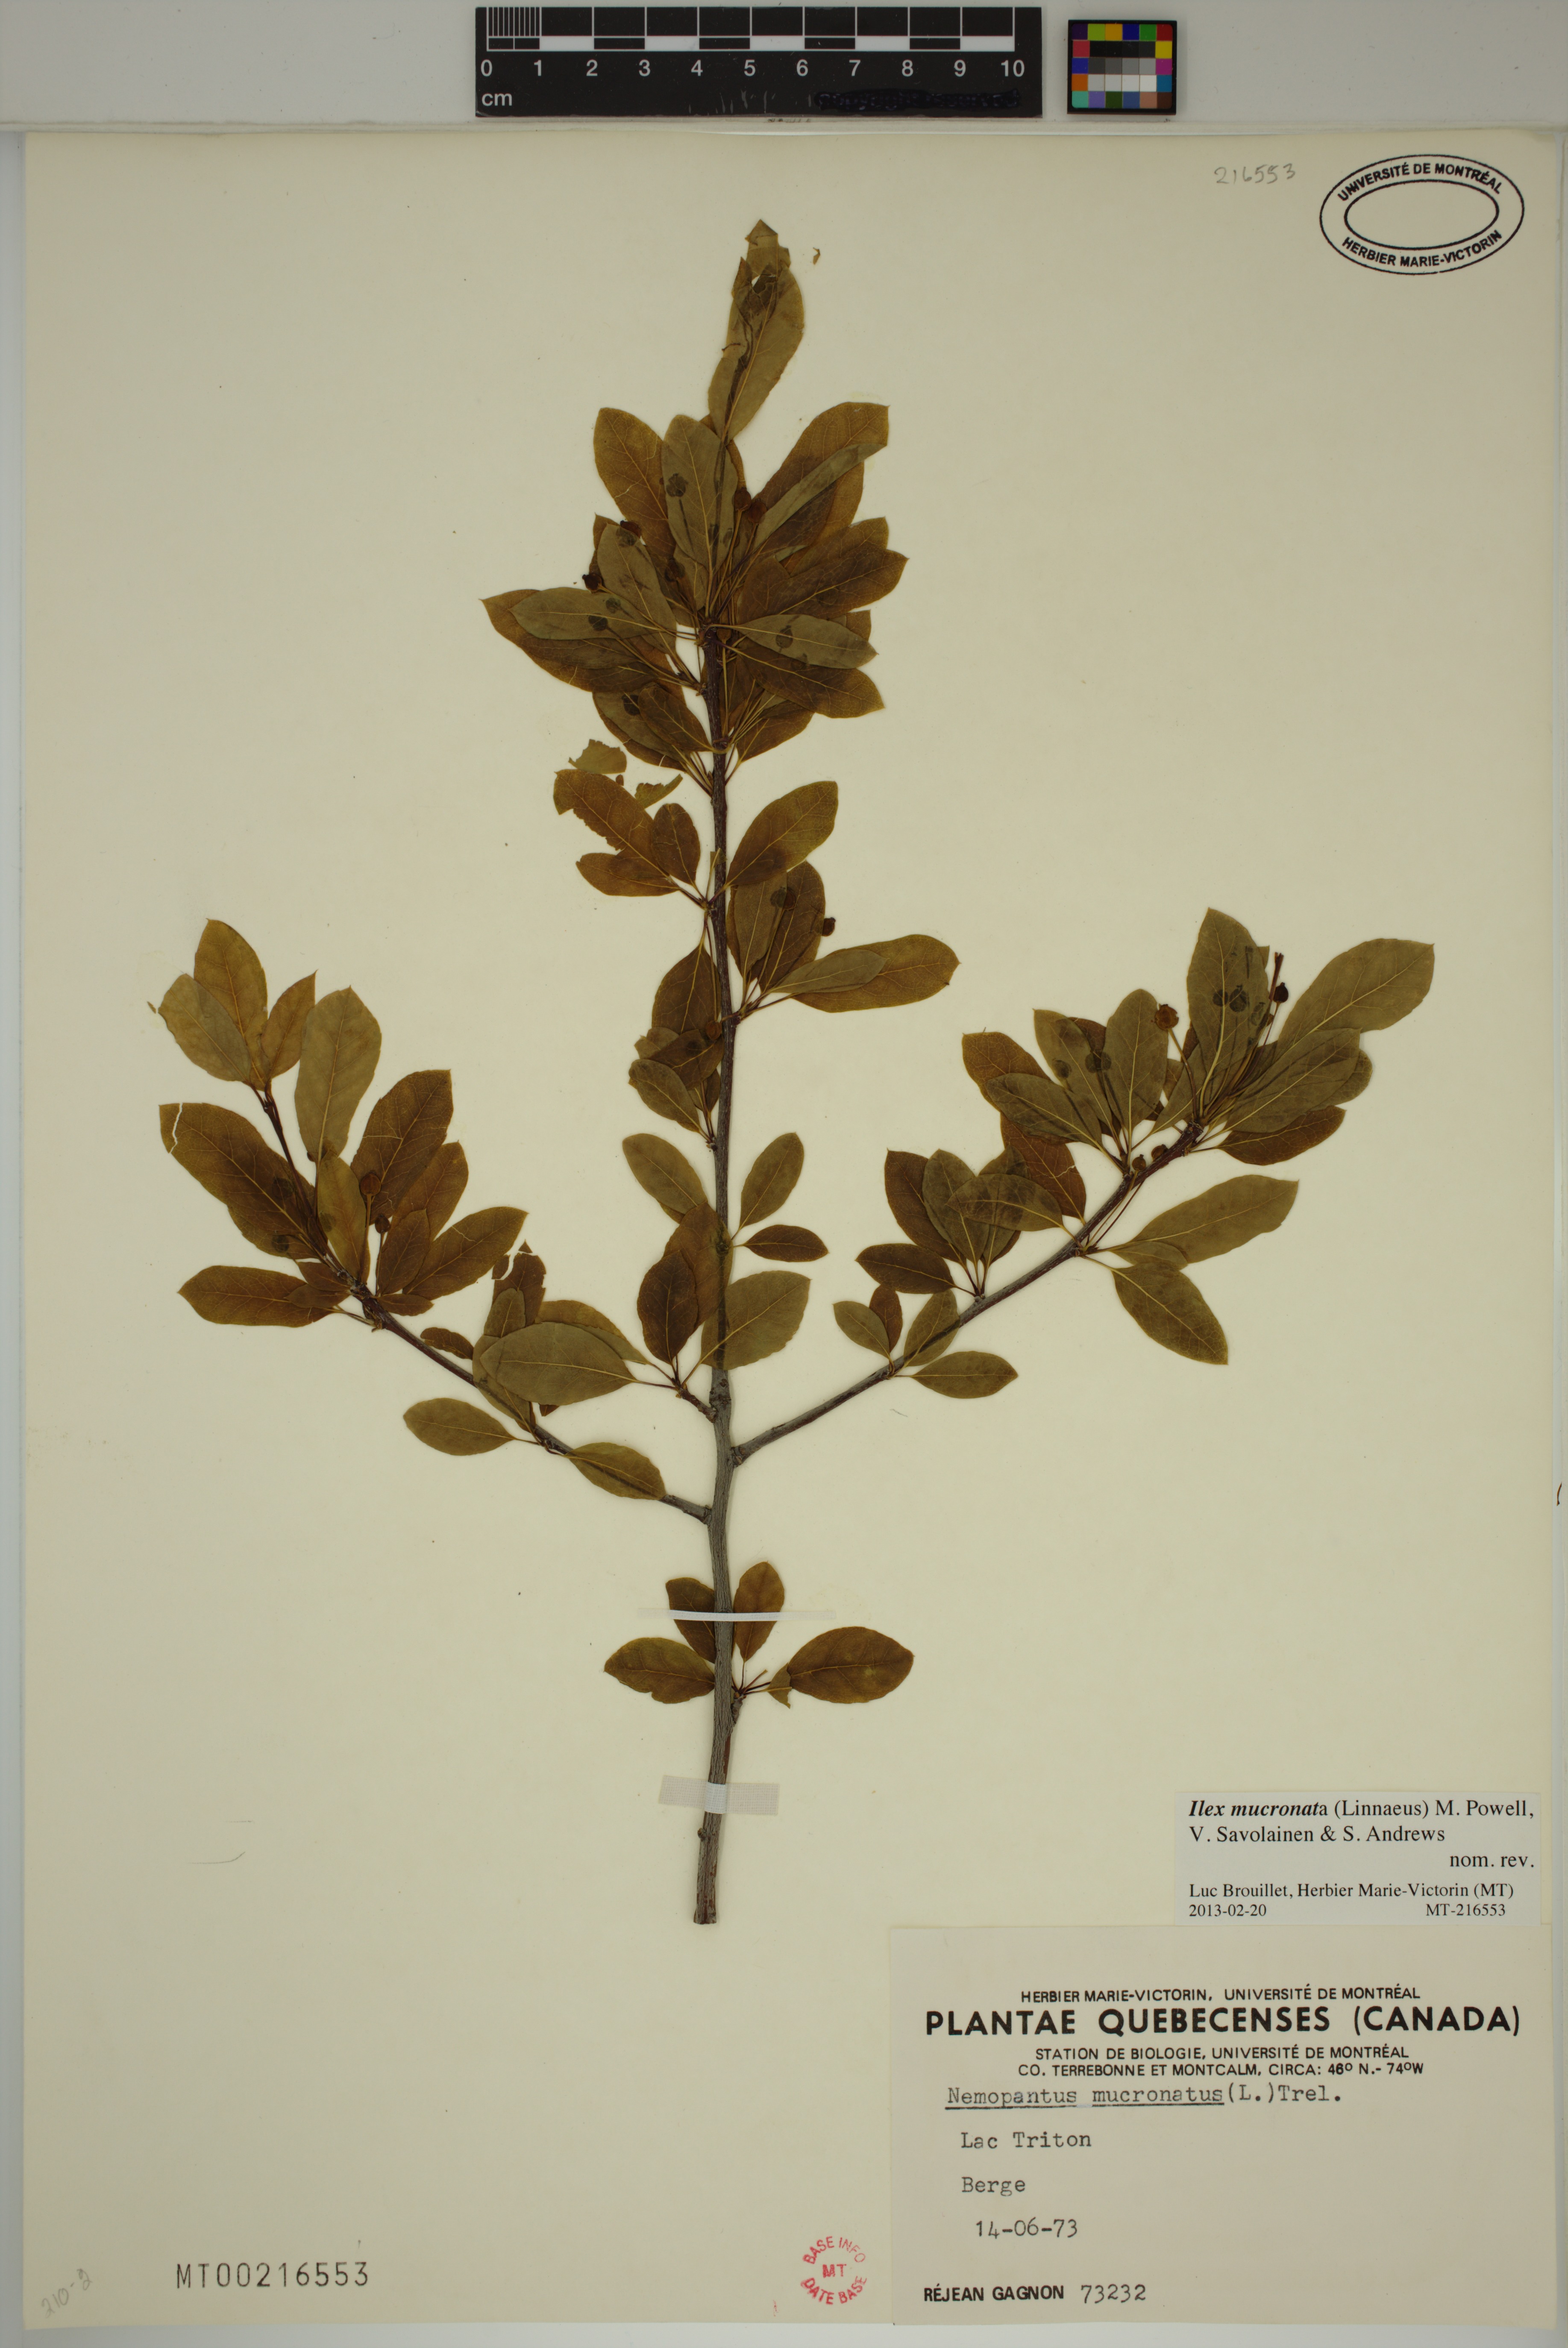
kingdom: Plantae
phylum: Tracheophyta
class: Magnoliopsida
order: Aquifoliales
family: Aquifoliaceae
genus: Ilex
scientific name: Ilex mucronata
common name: Catberry
